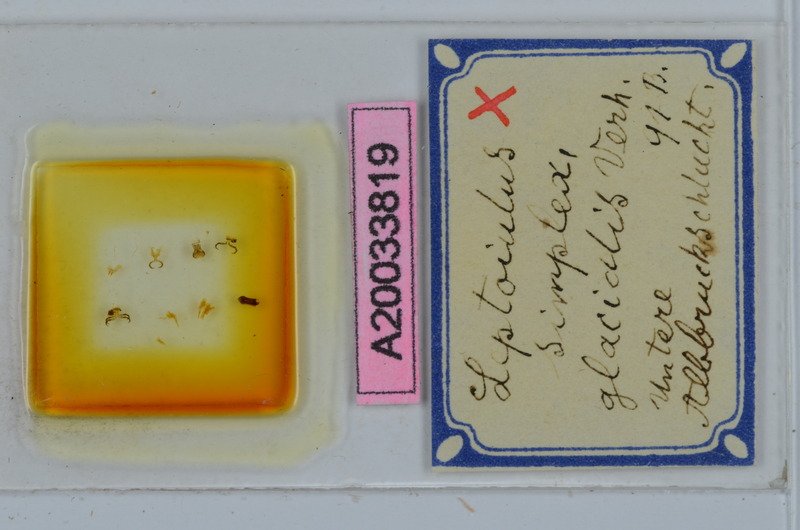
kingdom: Animalia
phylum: Arthropoda
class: Diplopoda
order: Julida
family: Julidae
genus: Leptoiulus
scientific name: Leptoiulus simplex
